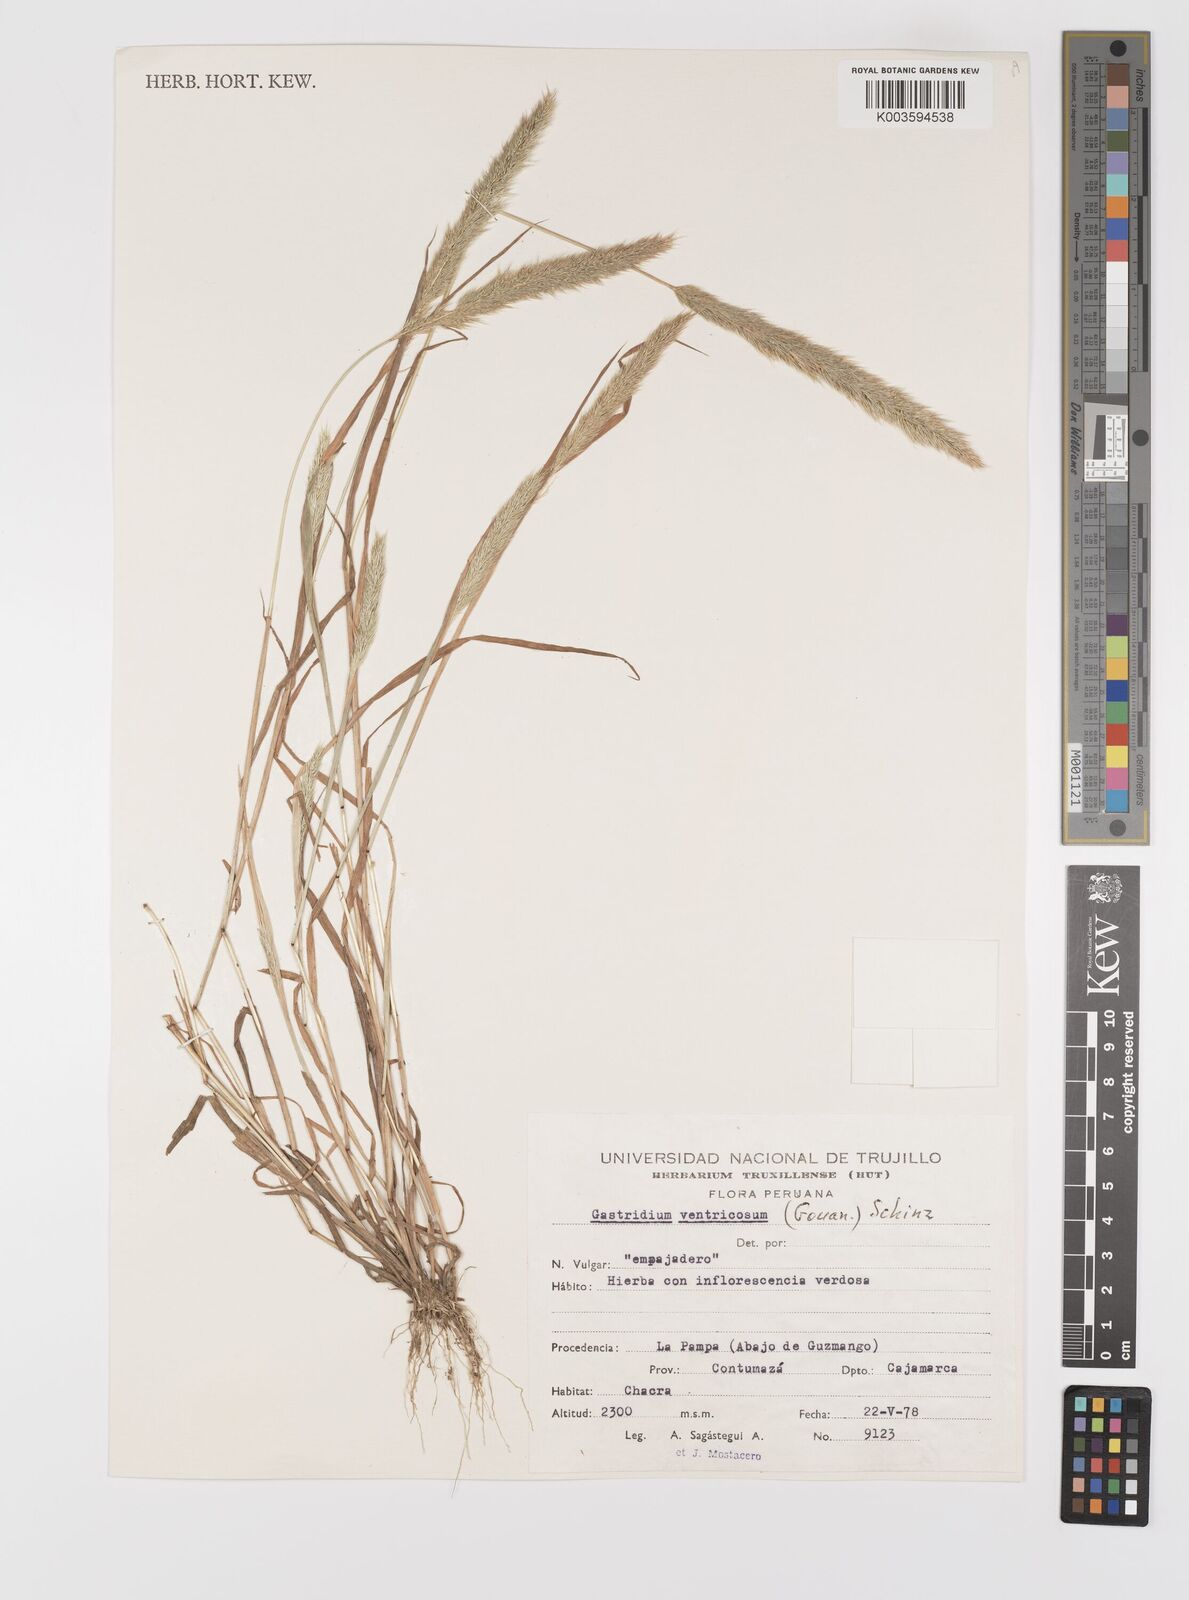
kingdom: Plantae
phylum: Tracheophyta
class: Liliopsida
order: Poales
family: Poaceae
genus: Gastridium
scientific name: Gastridium phleoides
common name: Nit grass
